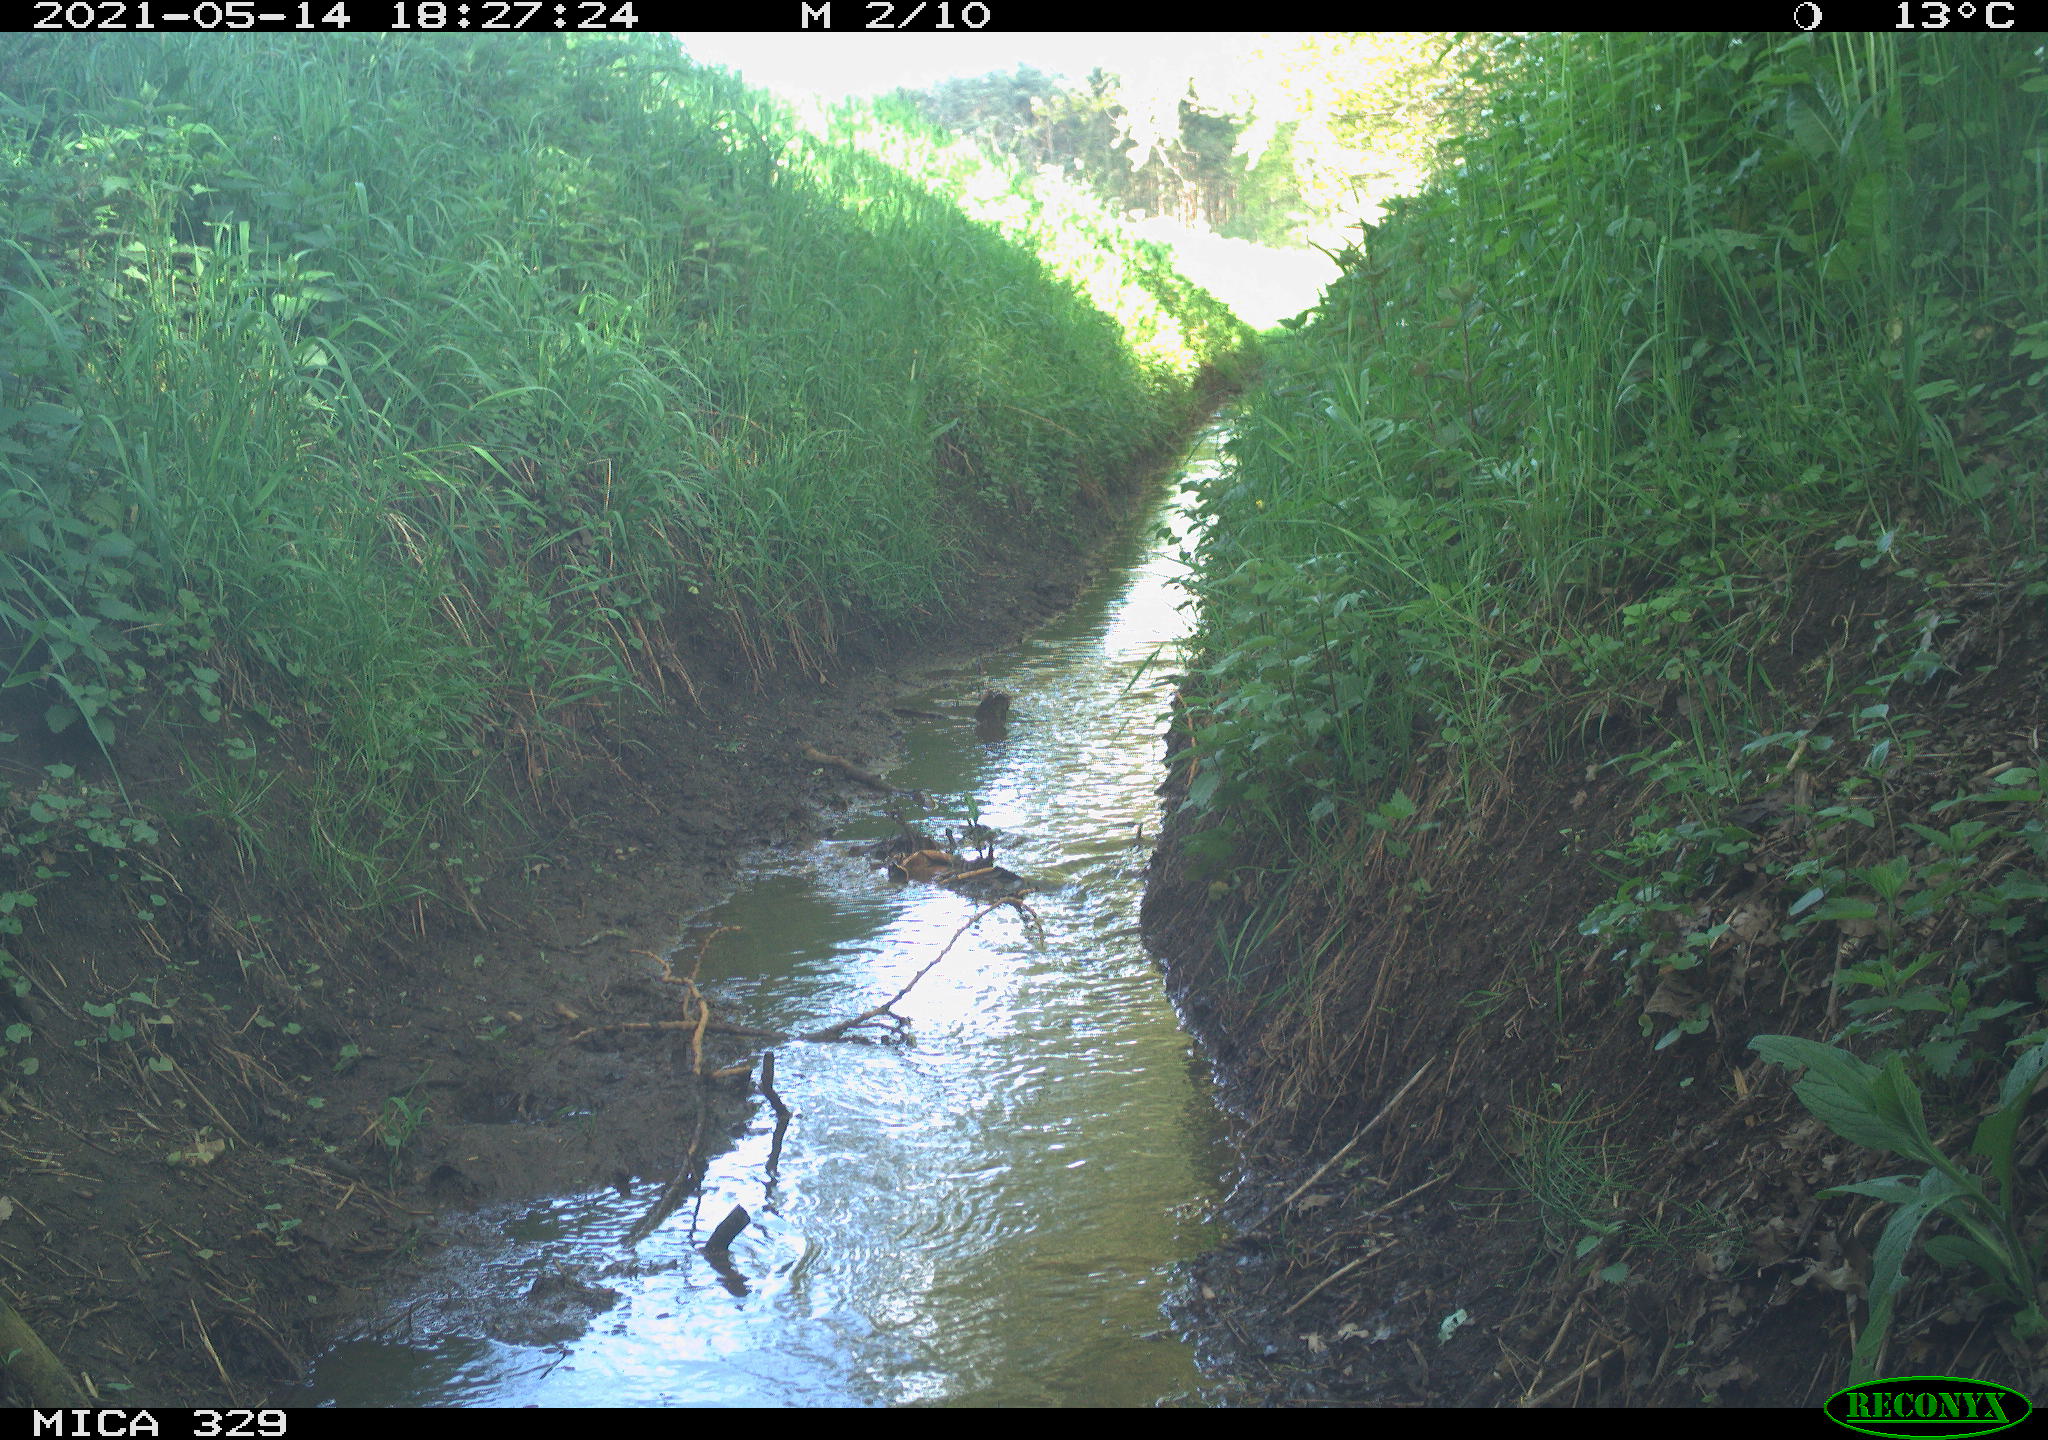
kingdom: Animalia
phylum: Chordata
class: Aves
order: Columbiformes
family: Columbidae
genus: Columba
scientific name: Columba palumbus
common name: Common wood pigeon
